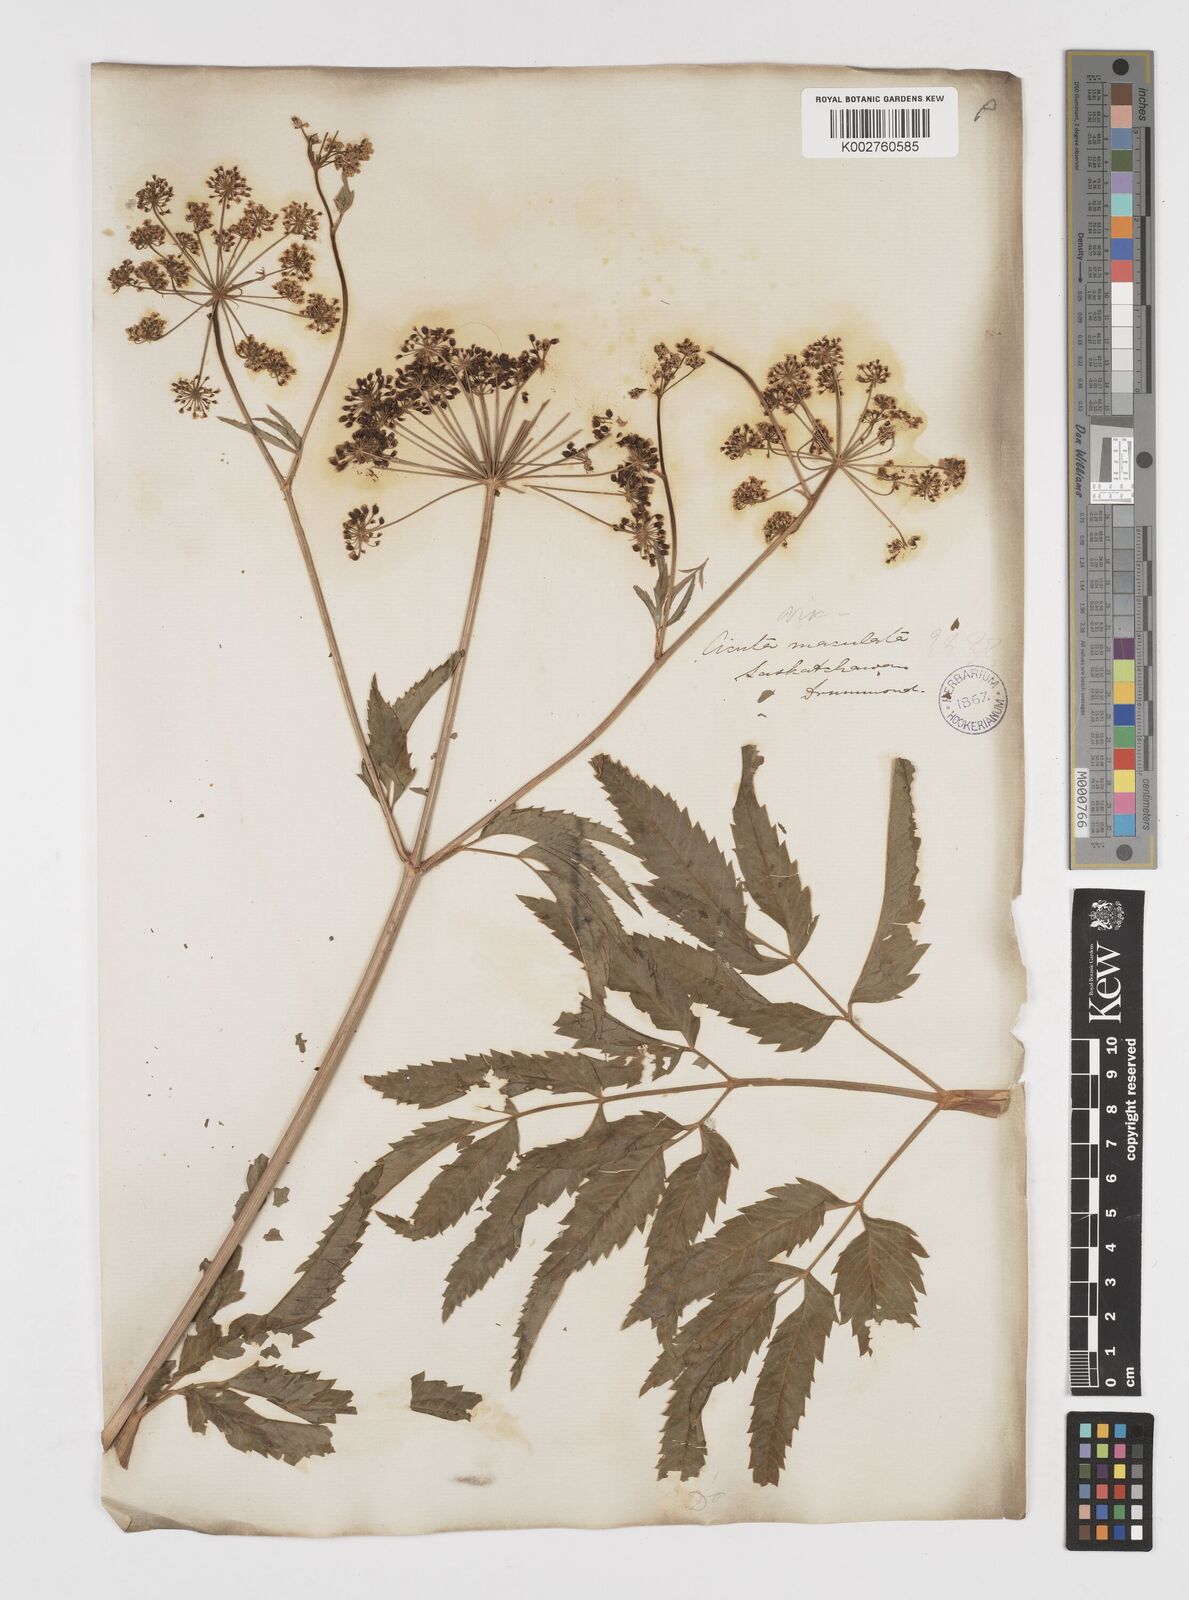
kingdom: Plantae
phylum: Tracheophyta
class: Magnoliopsida
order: Apiales
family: Apiaceae
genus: Cicuta
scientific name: Cicuta douglasii
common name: Western water-hemlock
